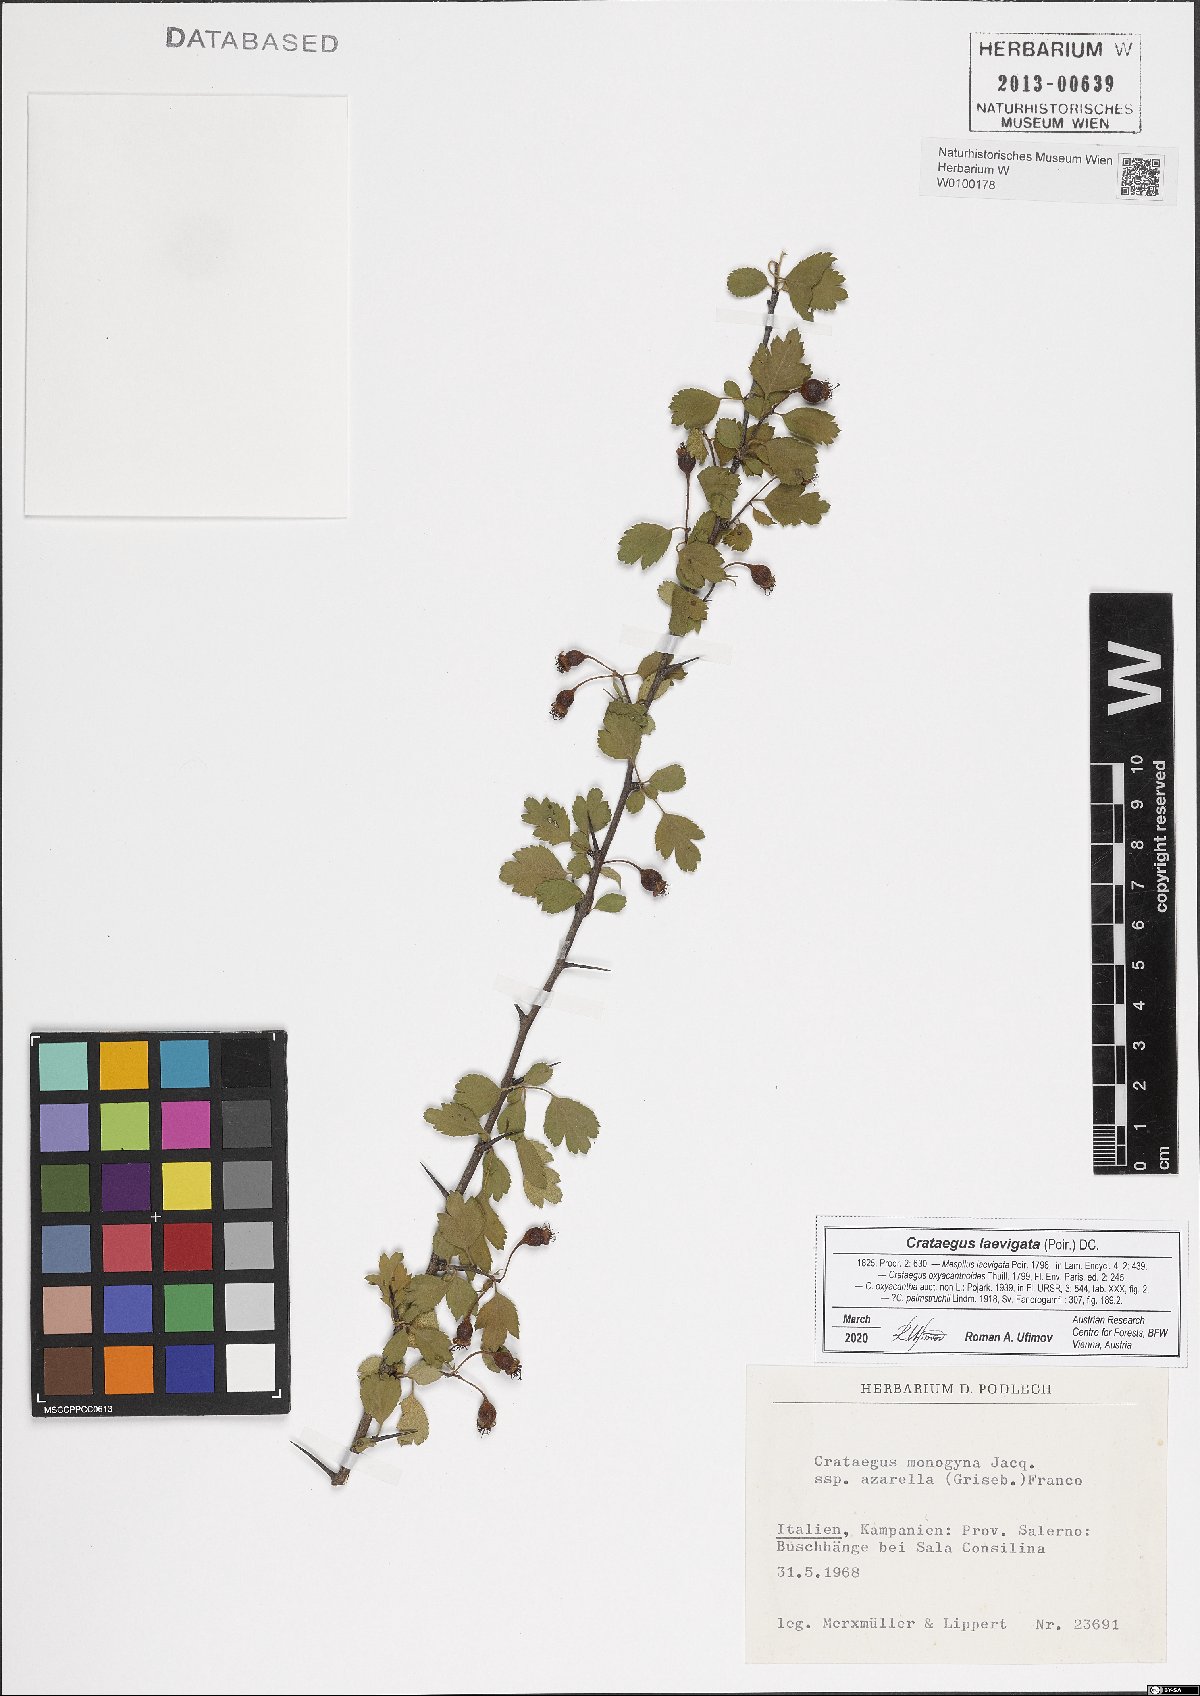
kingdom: Plantae
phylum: Tracheophyta
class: Magnoliopsida
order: Rosales
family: Rosaceae
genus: Crataegus
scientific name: Crataegus monogyna
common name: Hawthorn
